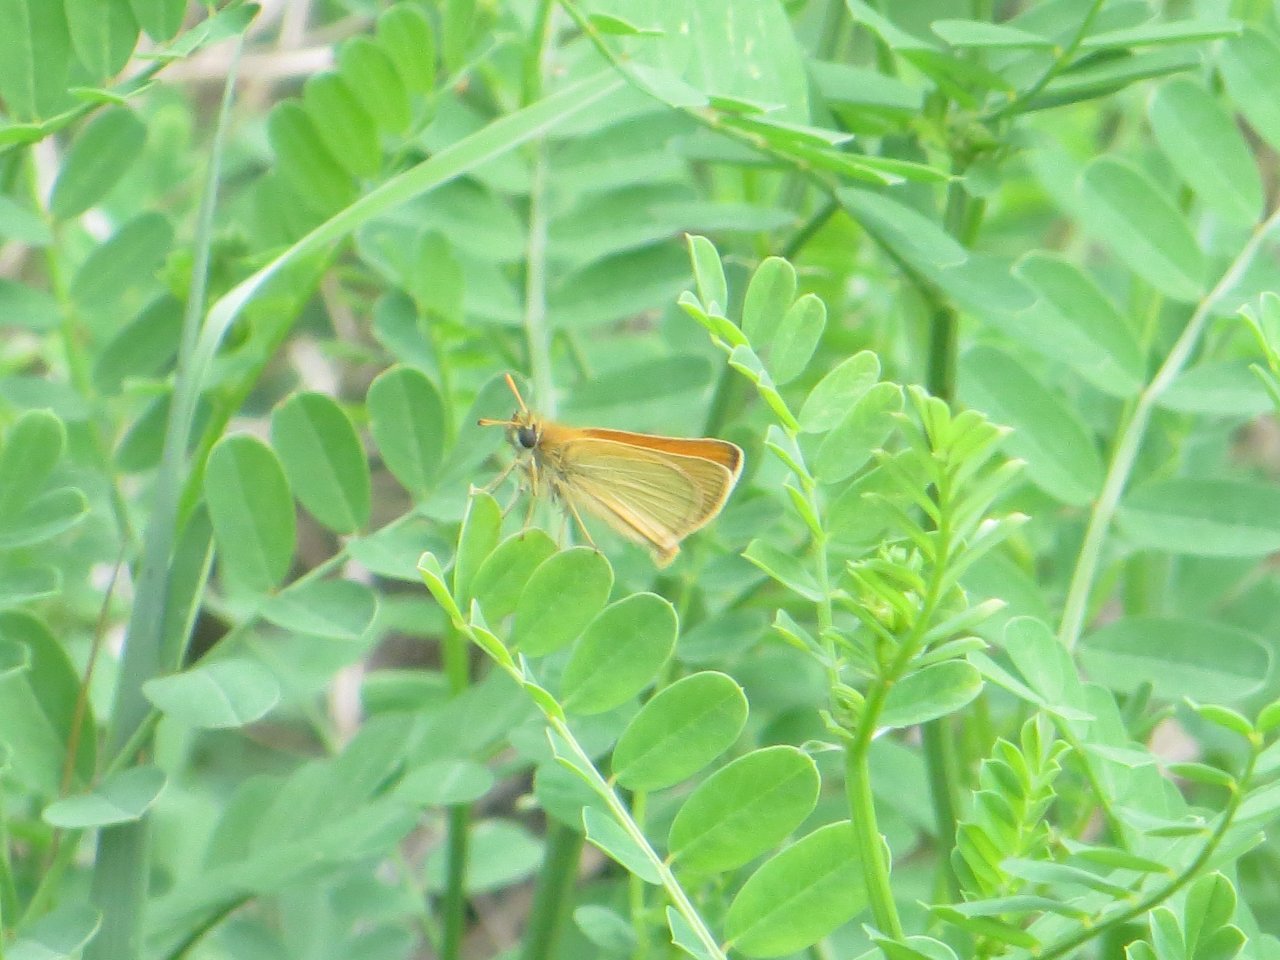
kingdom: Animalia
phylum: Arthropoda
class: Insecta
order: Lepidoptera
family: Hesperiidae
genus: Thymelicus
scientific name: Thymelicus lineola
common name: European Skipper
